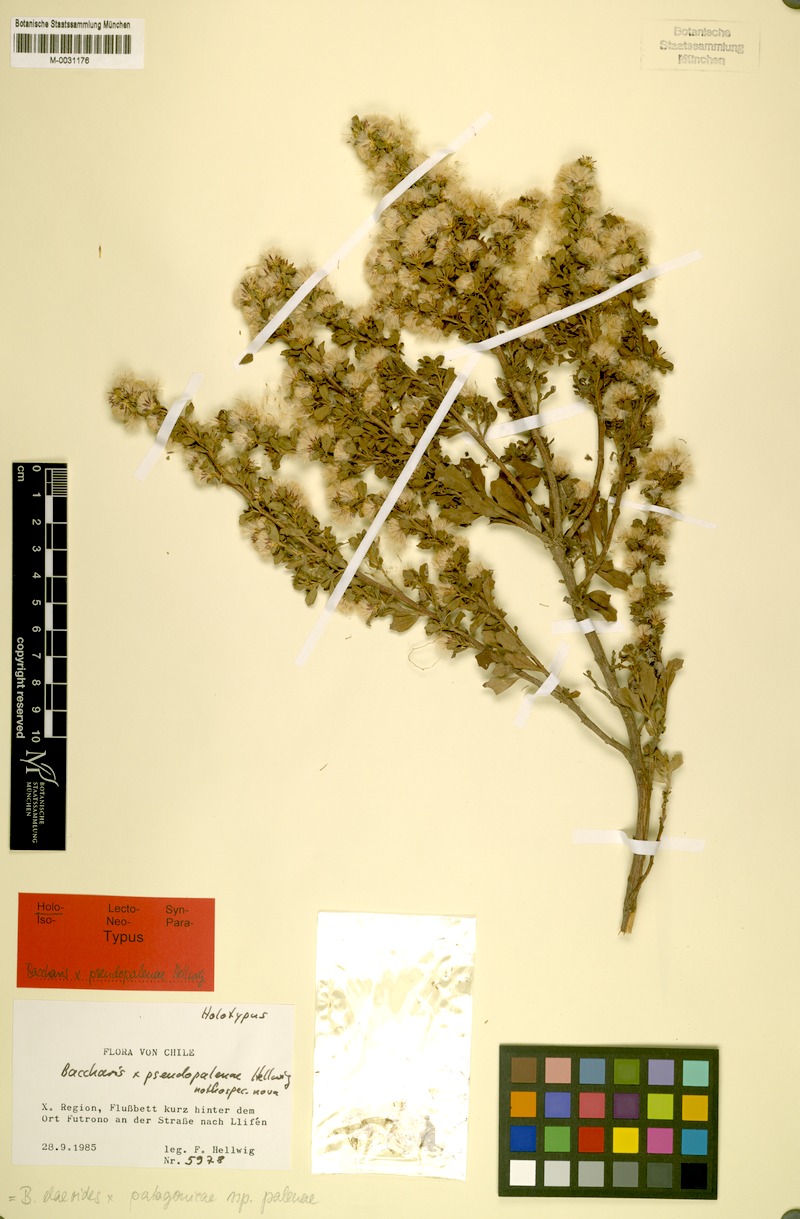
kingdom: Plantae
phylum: Tracheophyta
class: Magnoliopsida
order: Asterales
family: Asteraceae
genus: Baccharis
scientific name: Baccharis pseudopalenae
